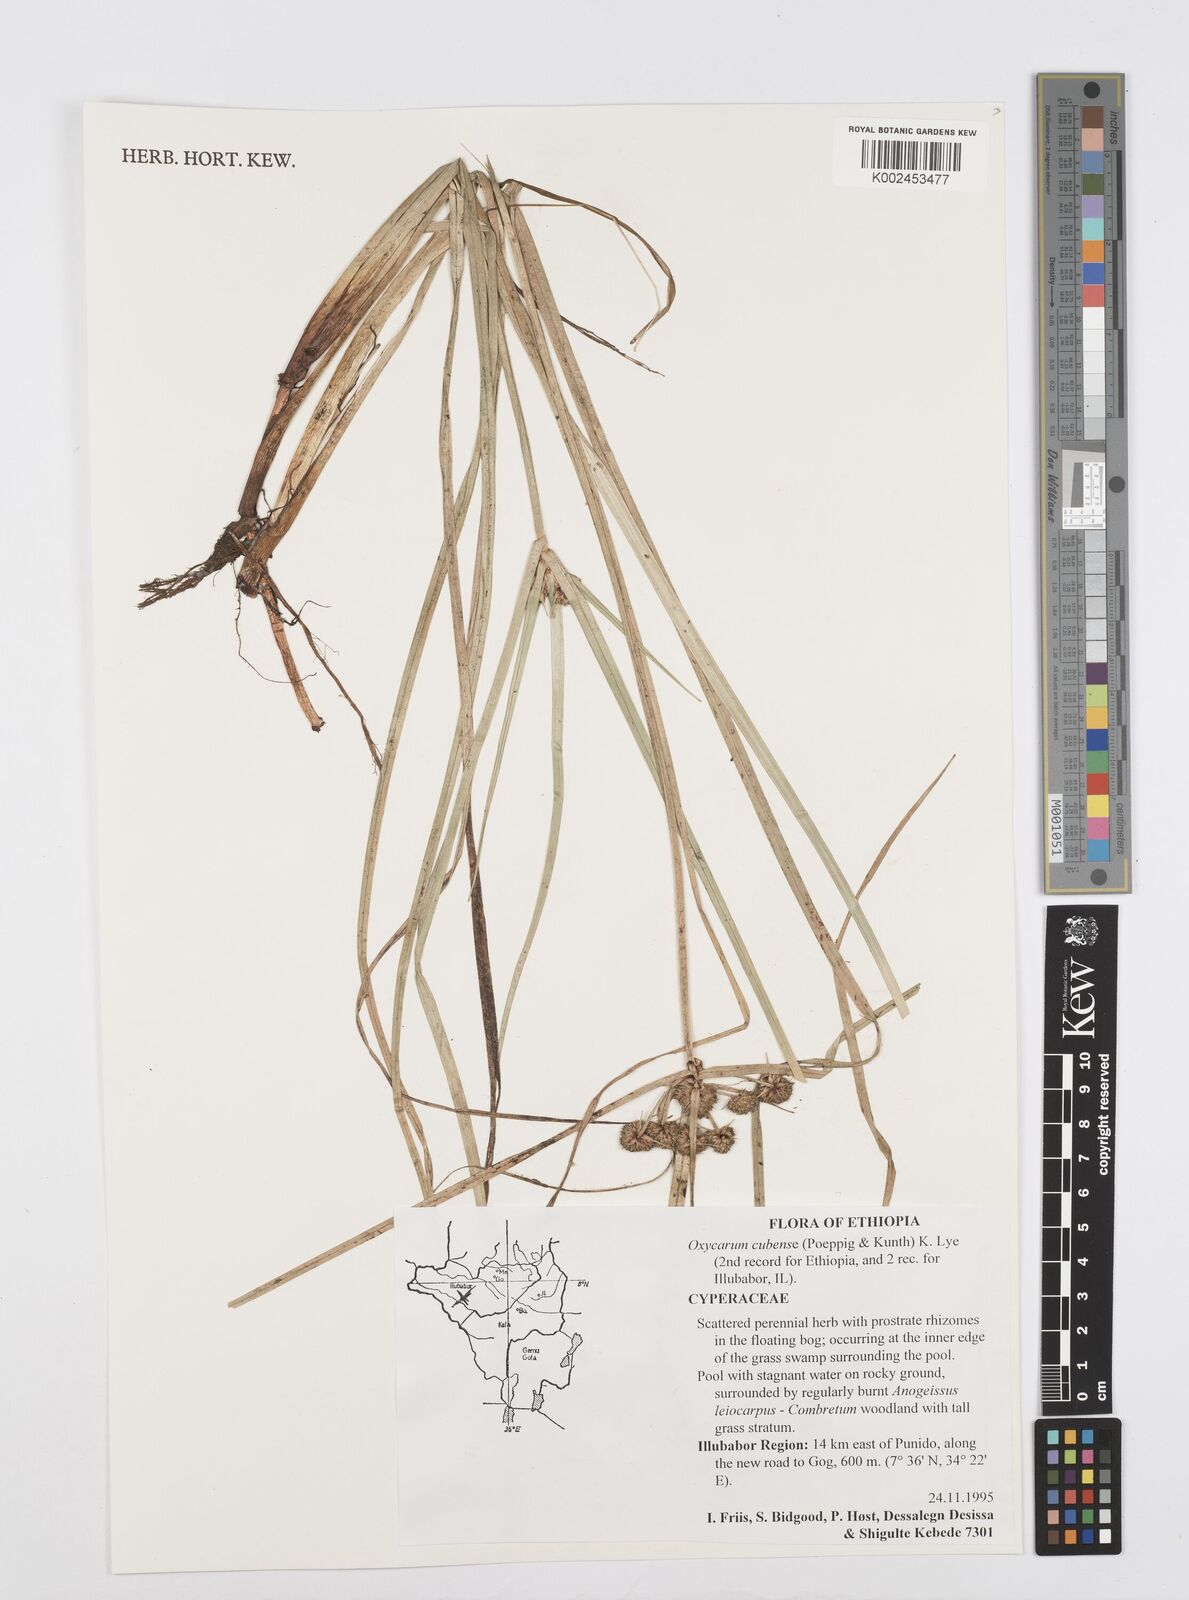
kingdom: Plantae
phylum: Tracheophyta
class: Liliopsida
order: Poales
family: Cyperaceae
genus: Cyperus
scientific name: Cyperus elegans
